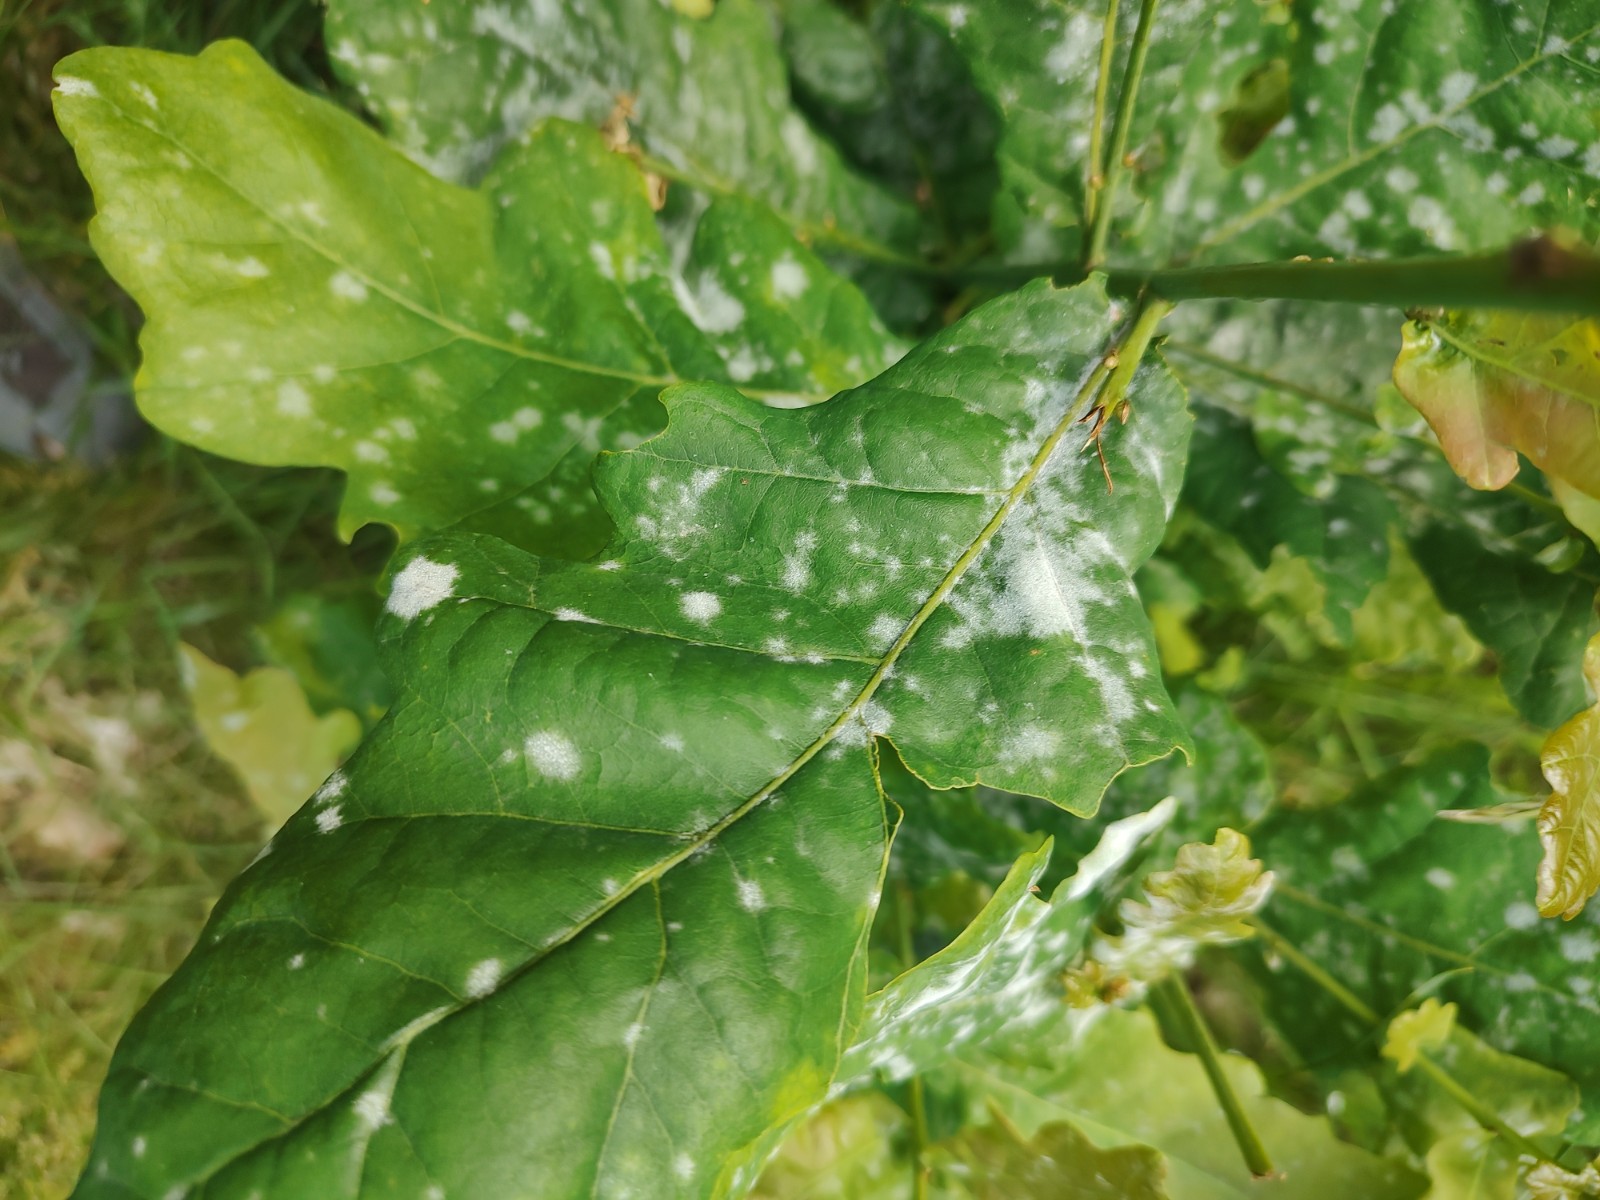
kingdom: Fungi
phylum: Ascomycota
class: Leotiomycetes
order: Helotiales
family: Erysiphaceae
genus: Erysiphe
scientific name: Erysiphe alphitoides
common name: ege-meldug
